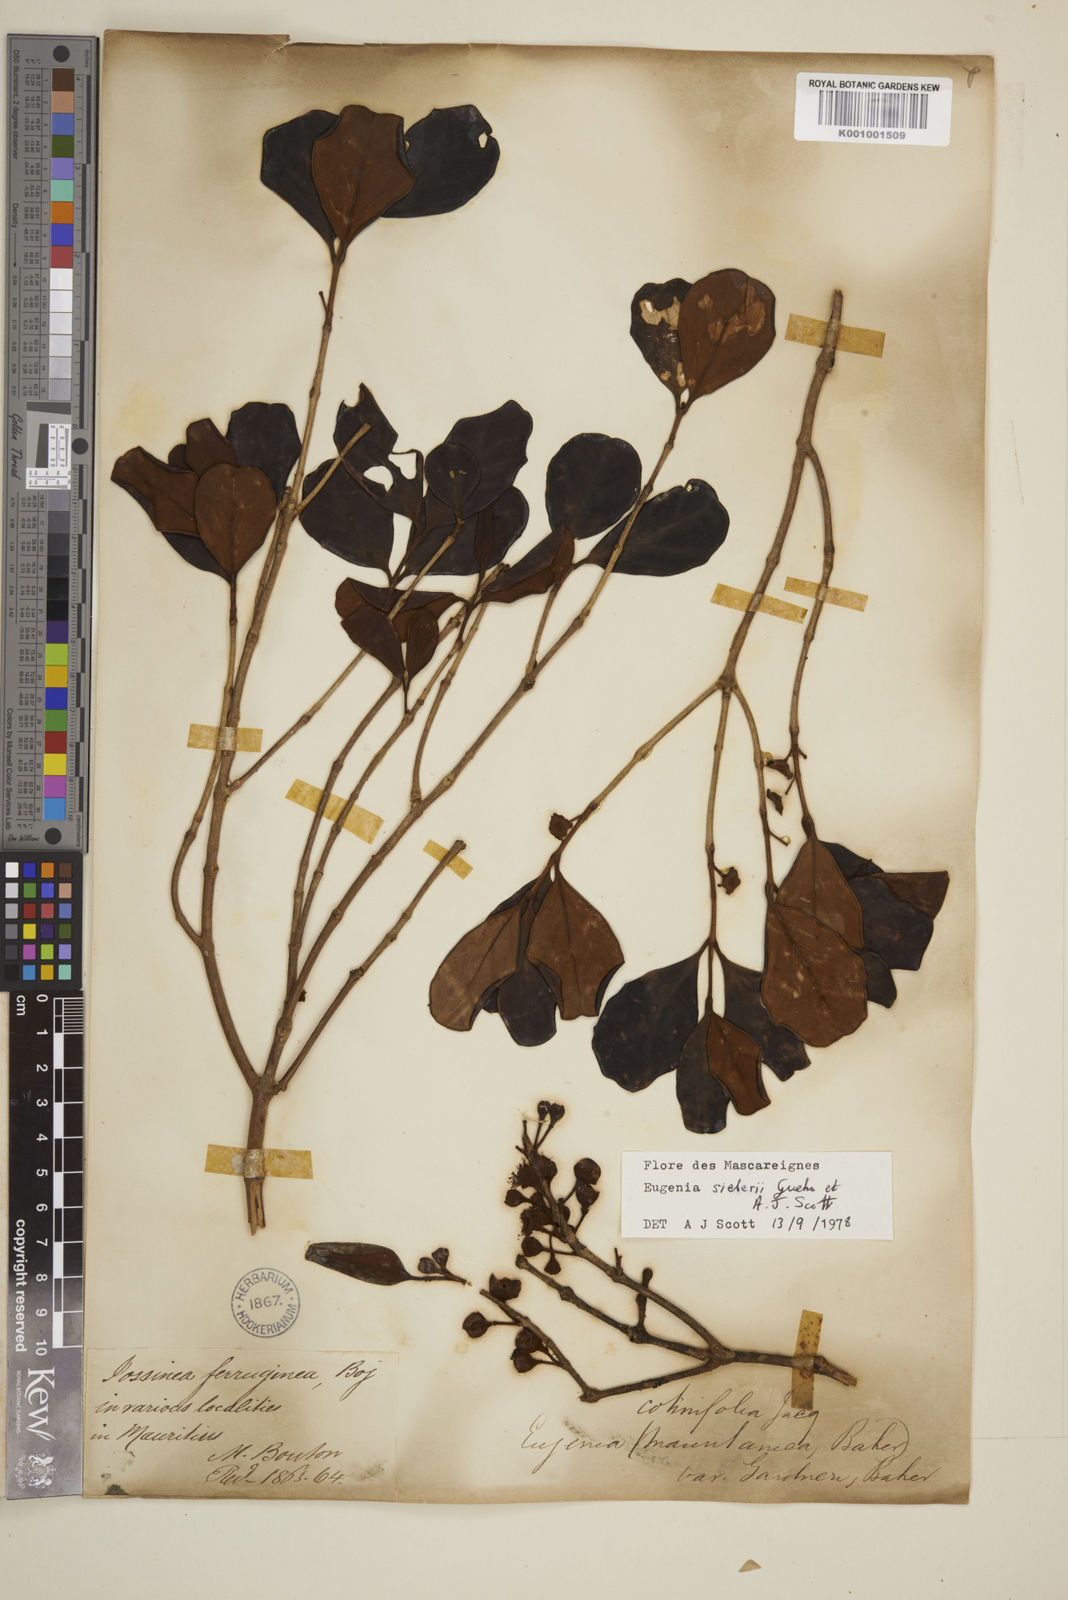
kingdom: Plantae
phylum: Tracheophyta
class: Magnoliopsida
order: Myrtales
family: Myrtaceae
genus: Eugenia
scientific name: Eugenia
